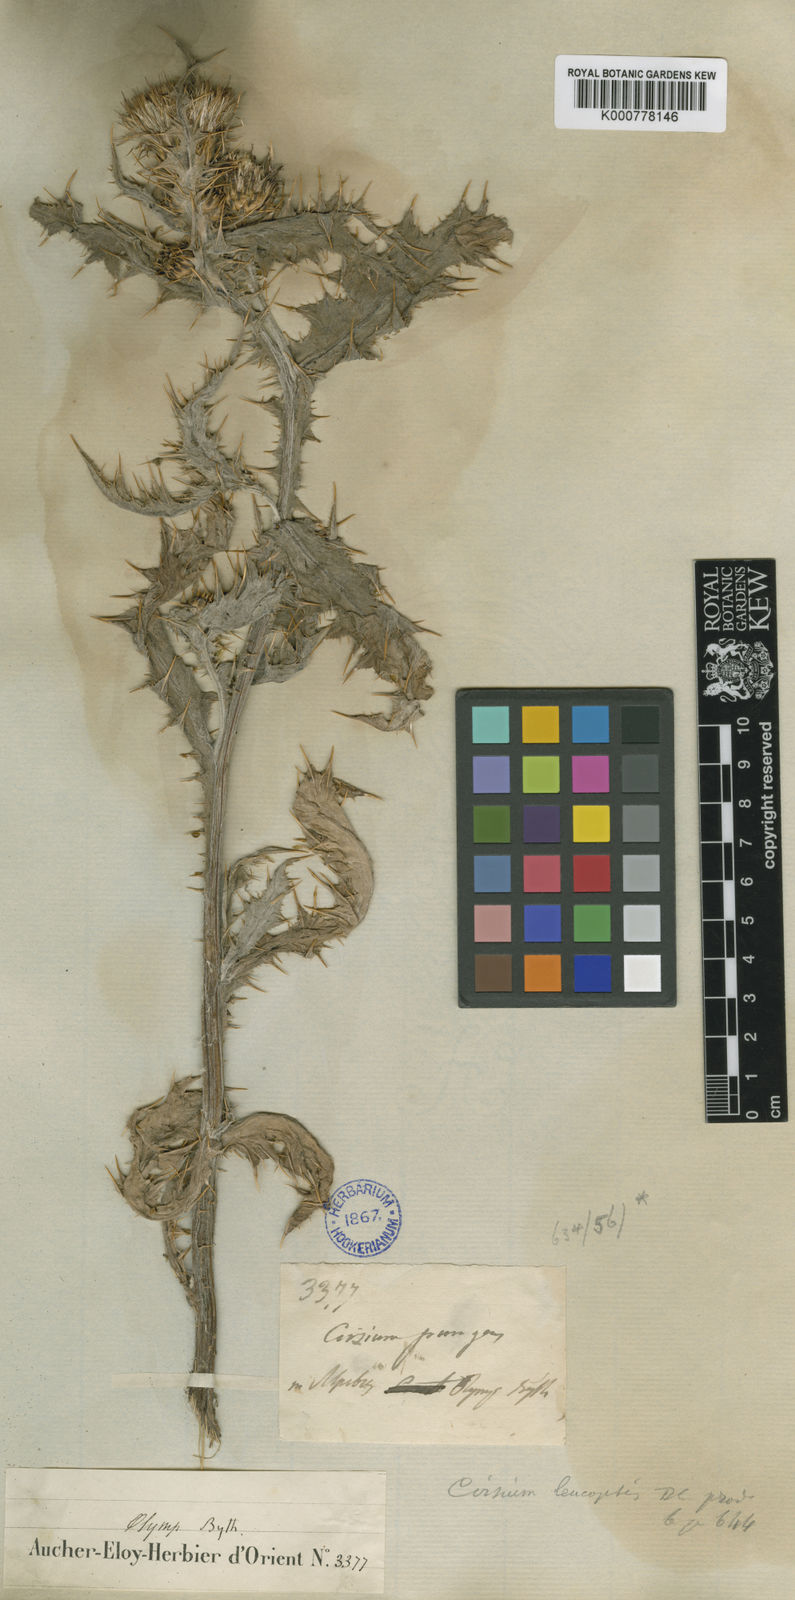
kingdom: Plantae
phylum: Tracheophyta
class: Magnoliopsida
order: Asterales
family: Asteraceae
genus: Cirsium
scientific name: Cirsium leucopsis
